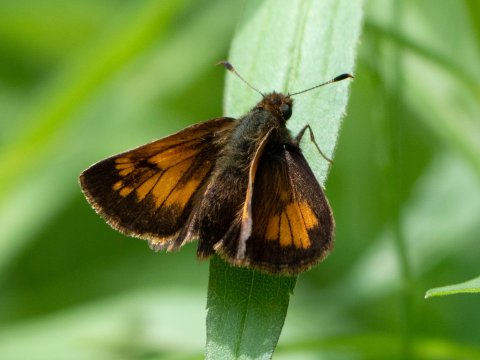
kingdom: Animalia
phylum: Arthropoda
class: Insecta
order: Lepidoptera
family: Hesperiidae
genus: Lon
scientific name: Lon hobomok
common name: Hobomok Skipper
